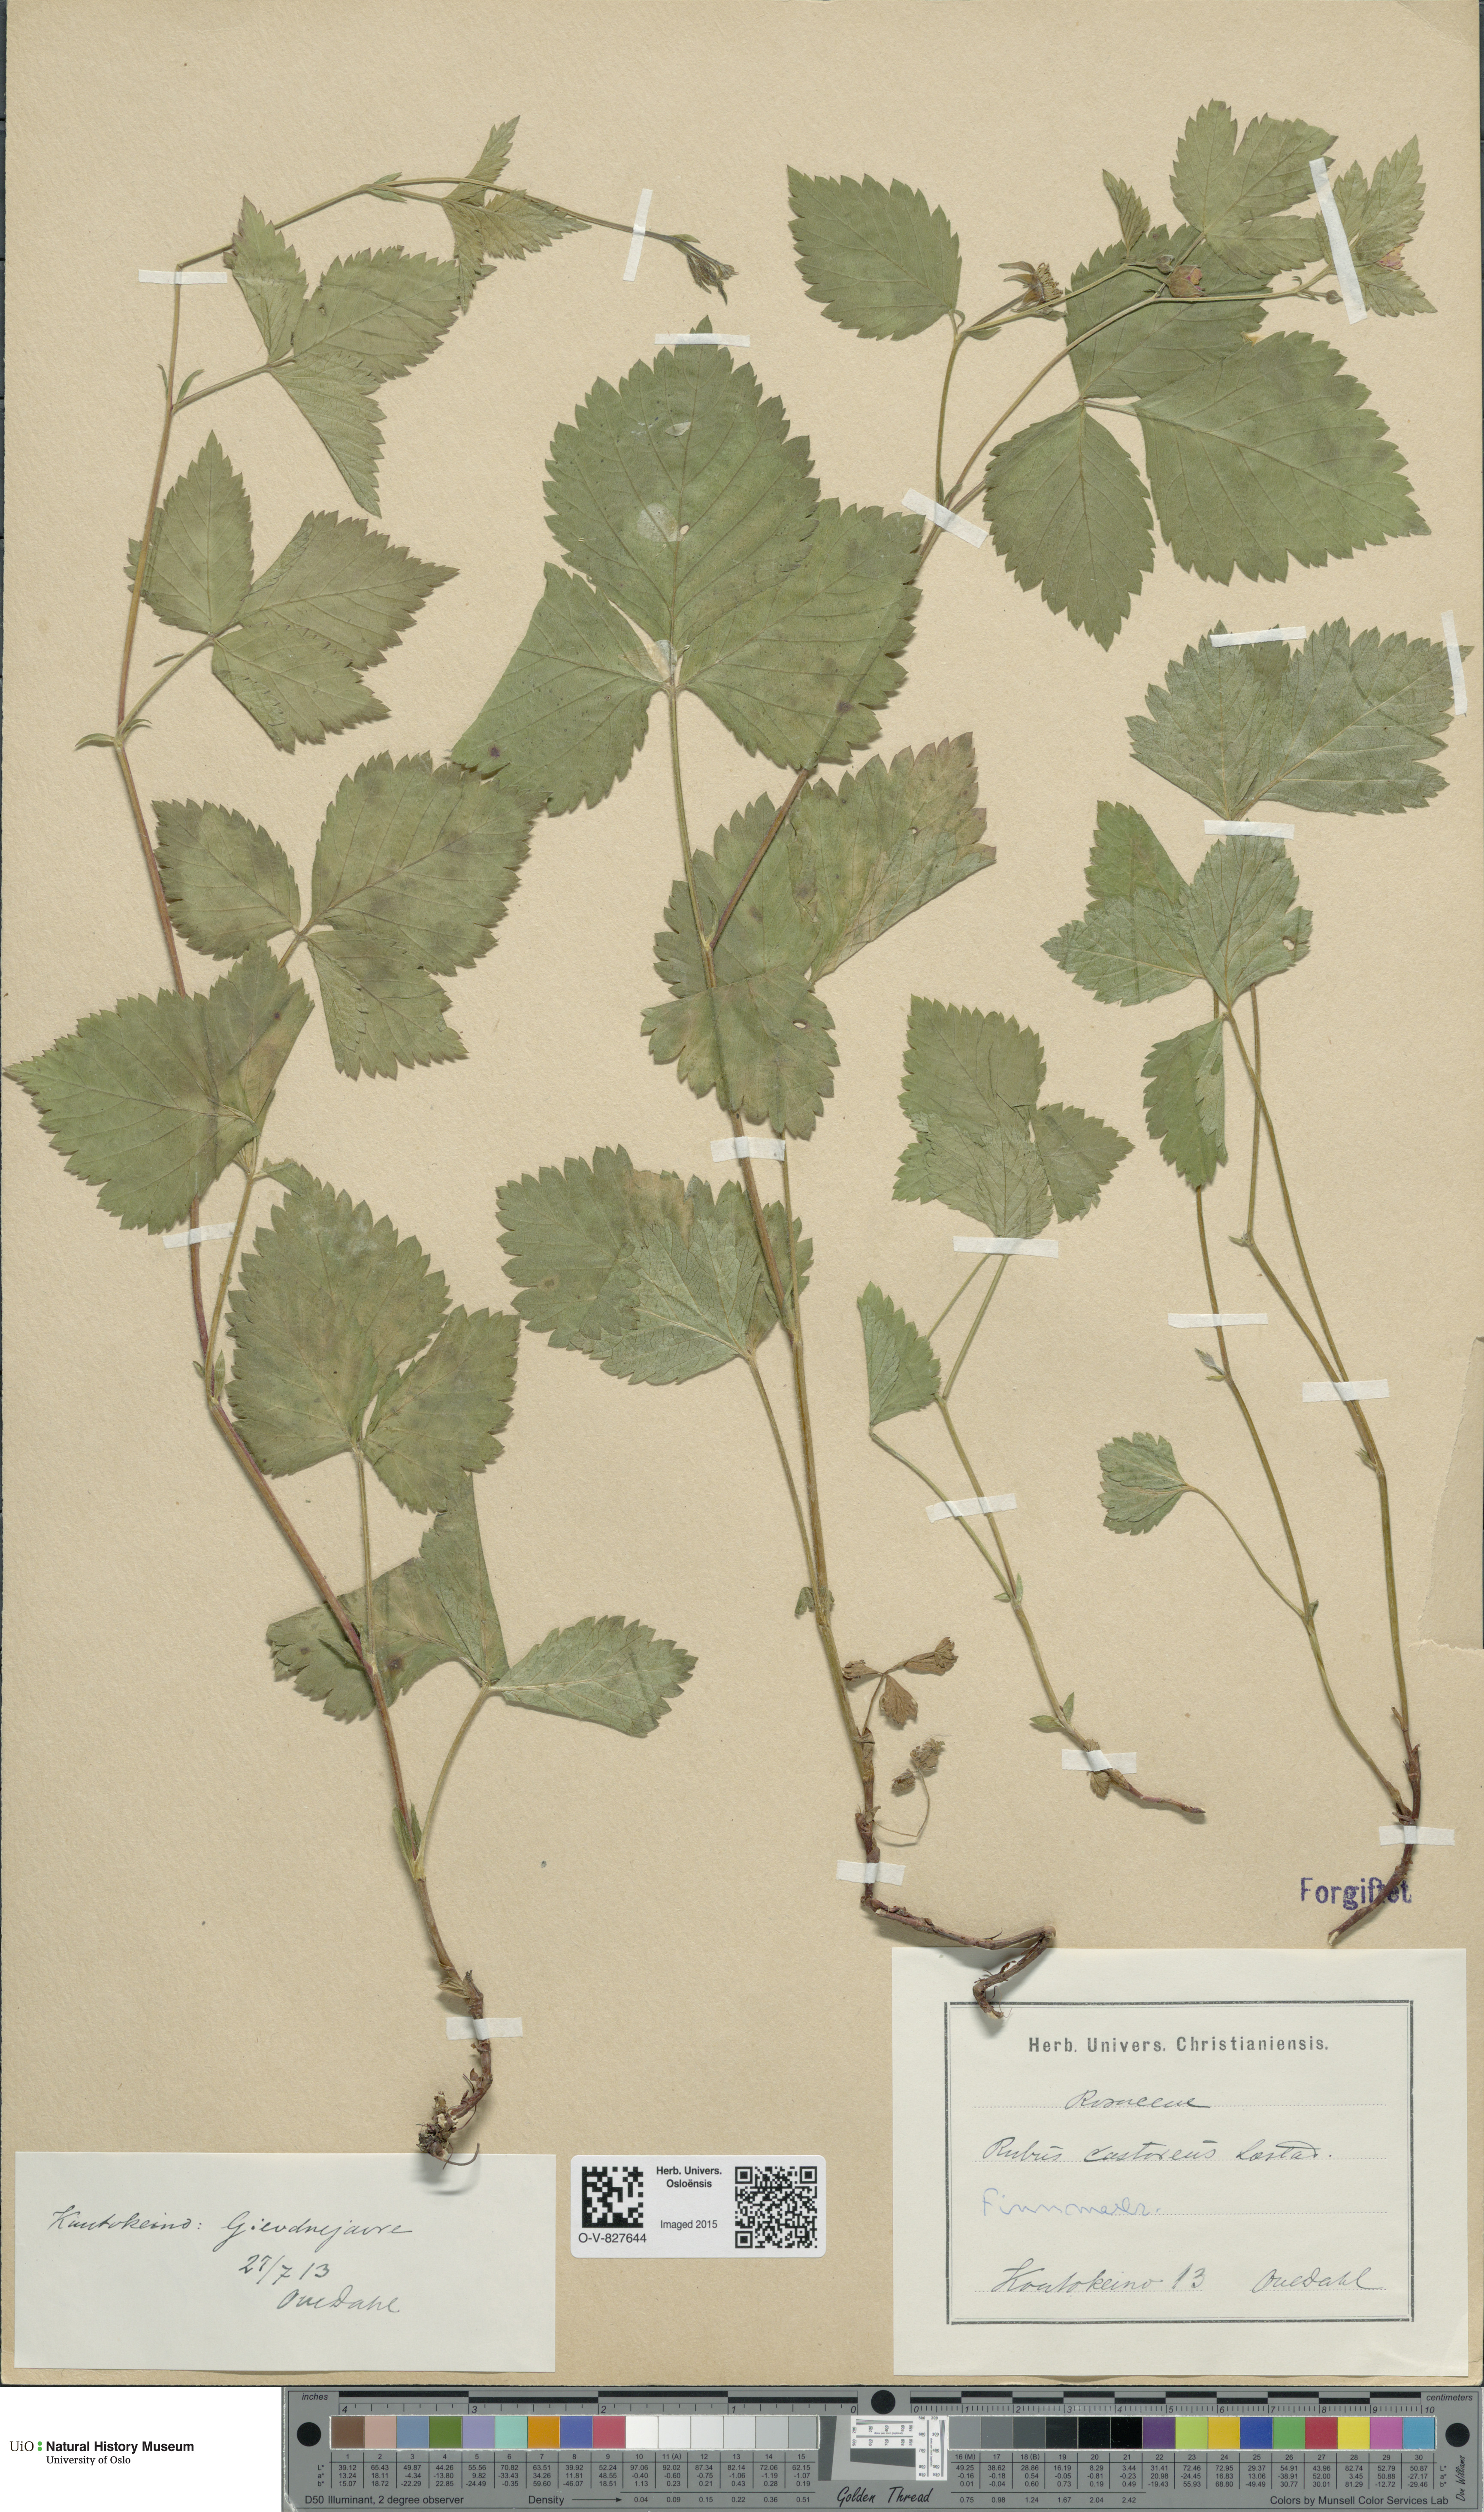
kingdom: Plantae
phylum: Tracheophyta
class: Magnoliopsida
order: Rosales
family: Rosaceae
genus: Rubus
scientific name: Rubus castoreus
